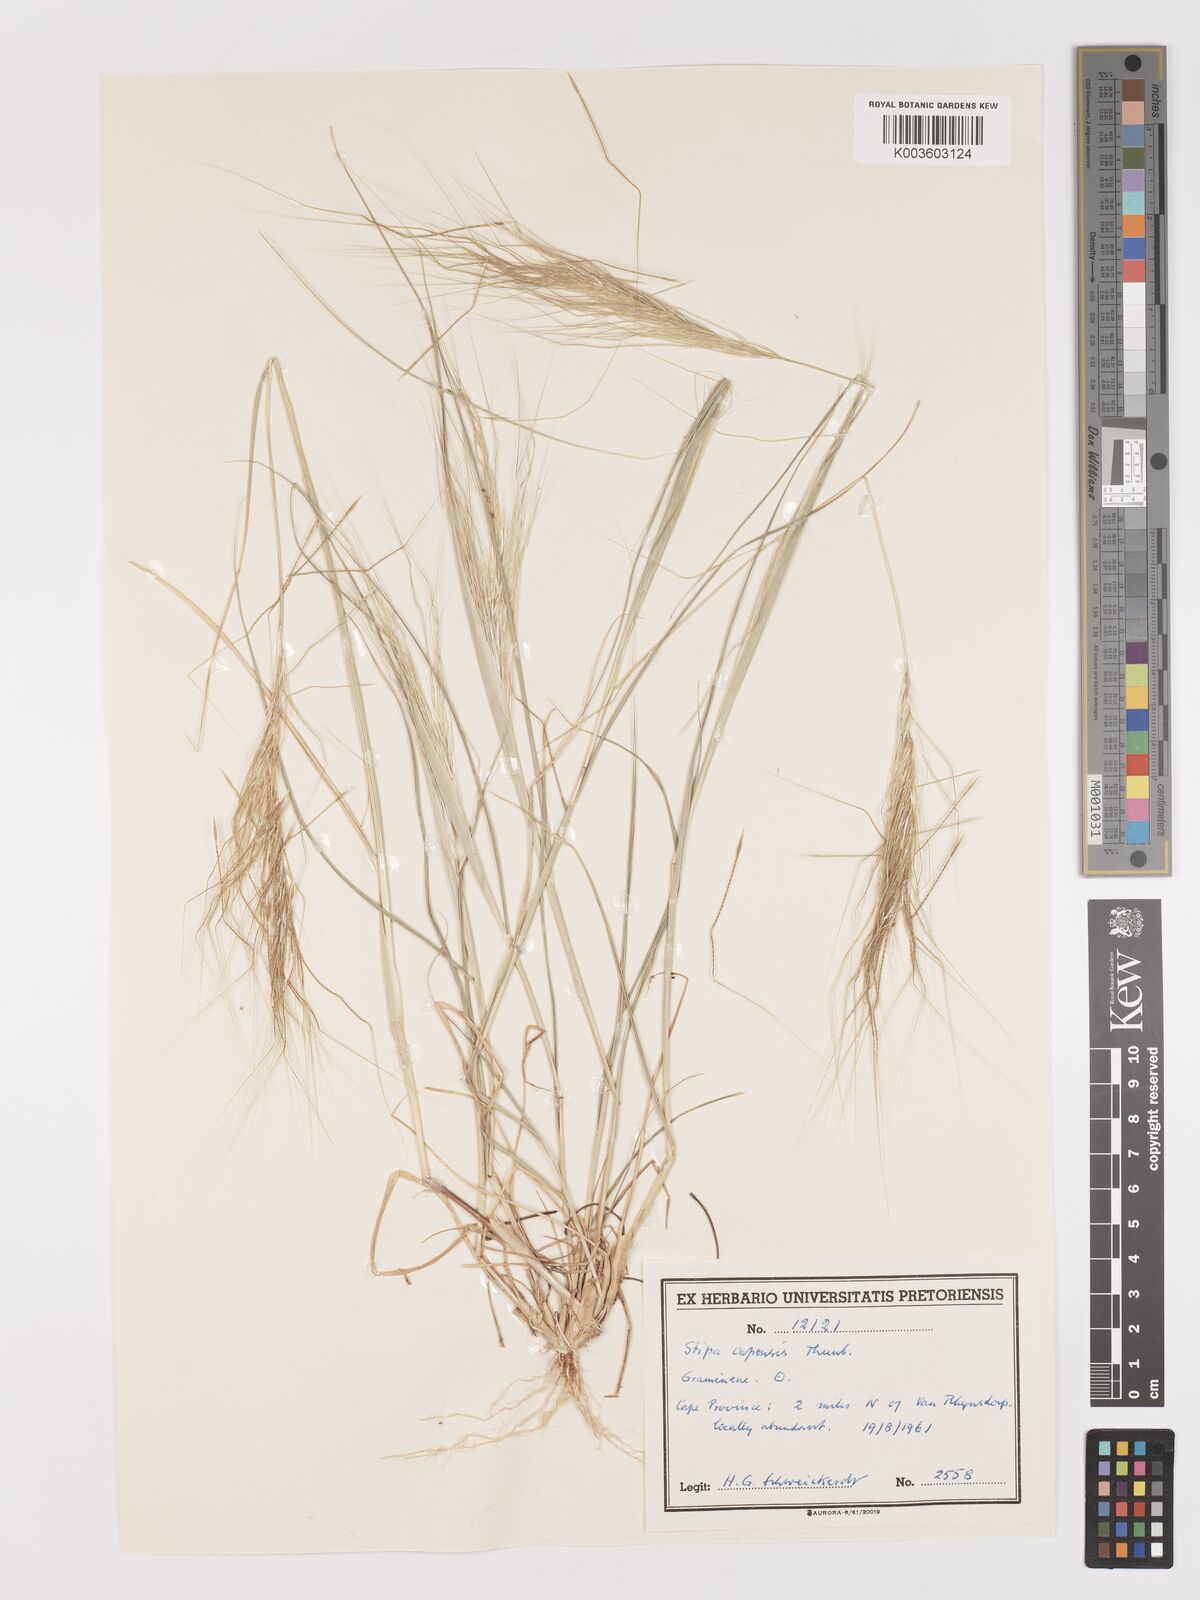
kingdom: Plantae
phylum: Tracheophyta
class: Liliopsida
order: Poales
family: Poaceae
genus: Stipellula
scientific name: Stipellula capensis
